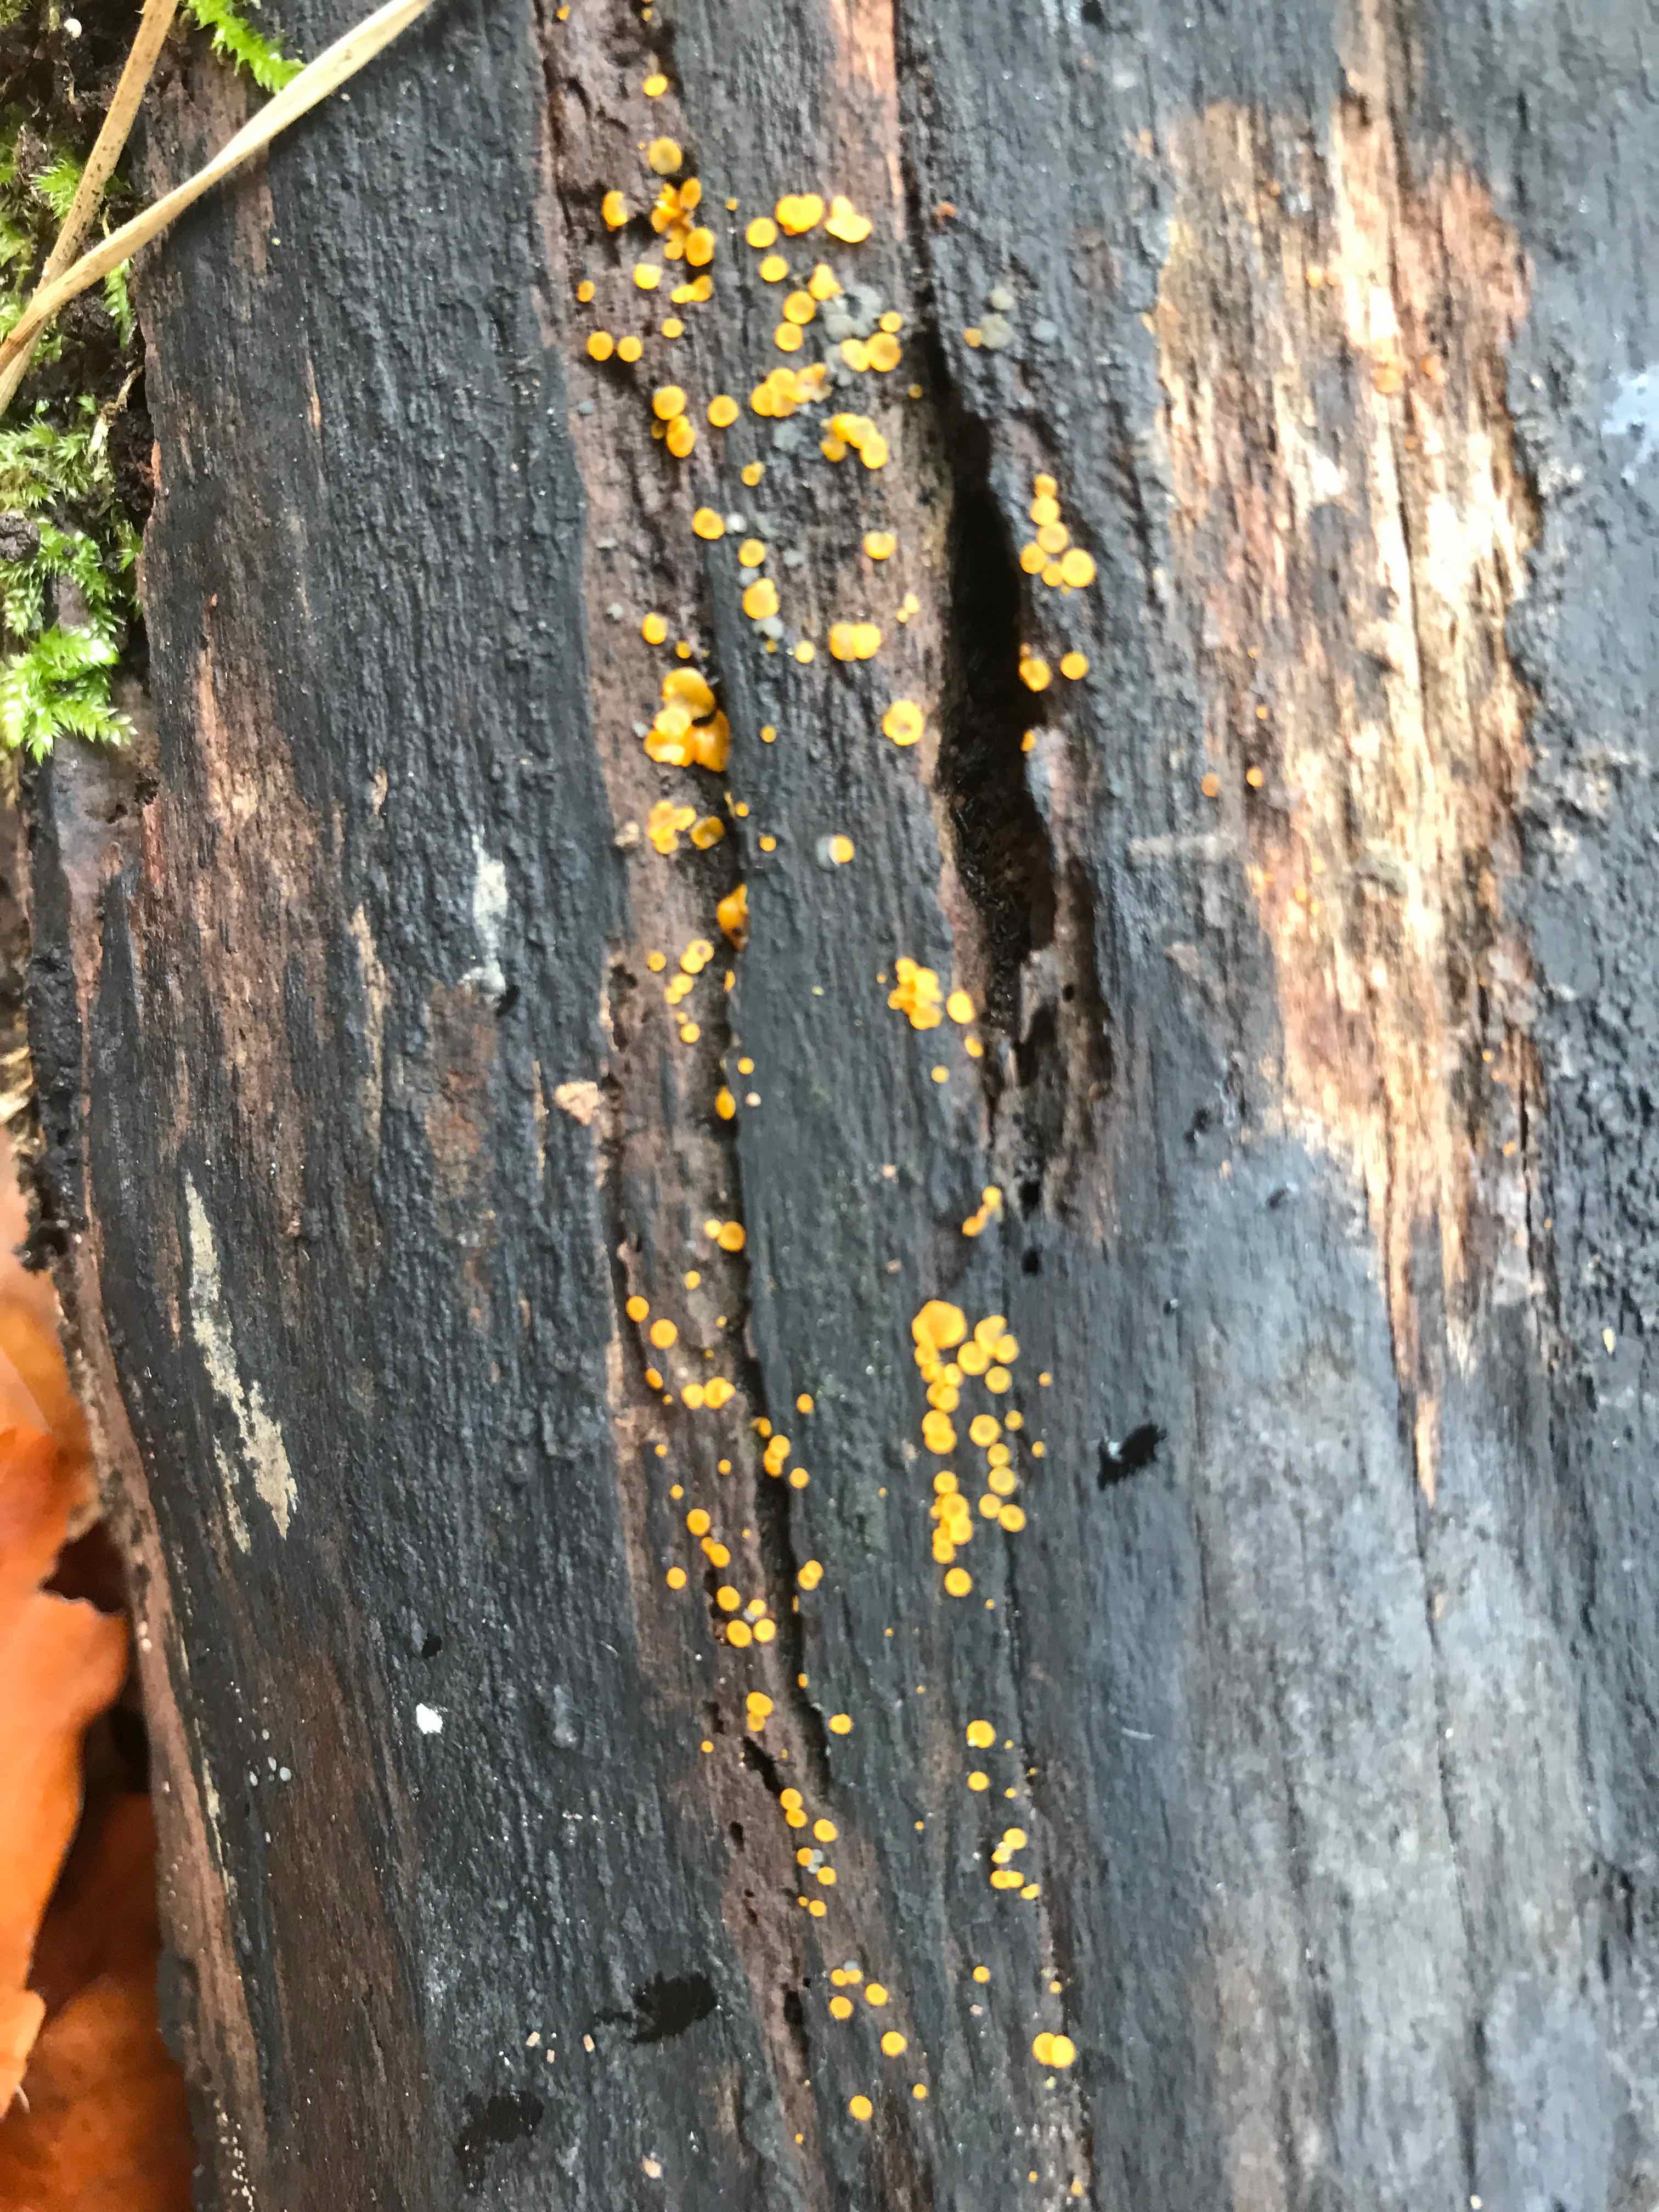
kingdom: Fungi
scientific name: Fungi
